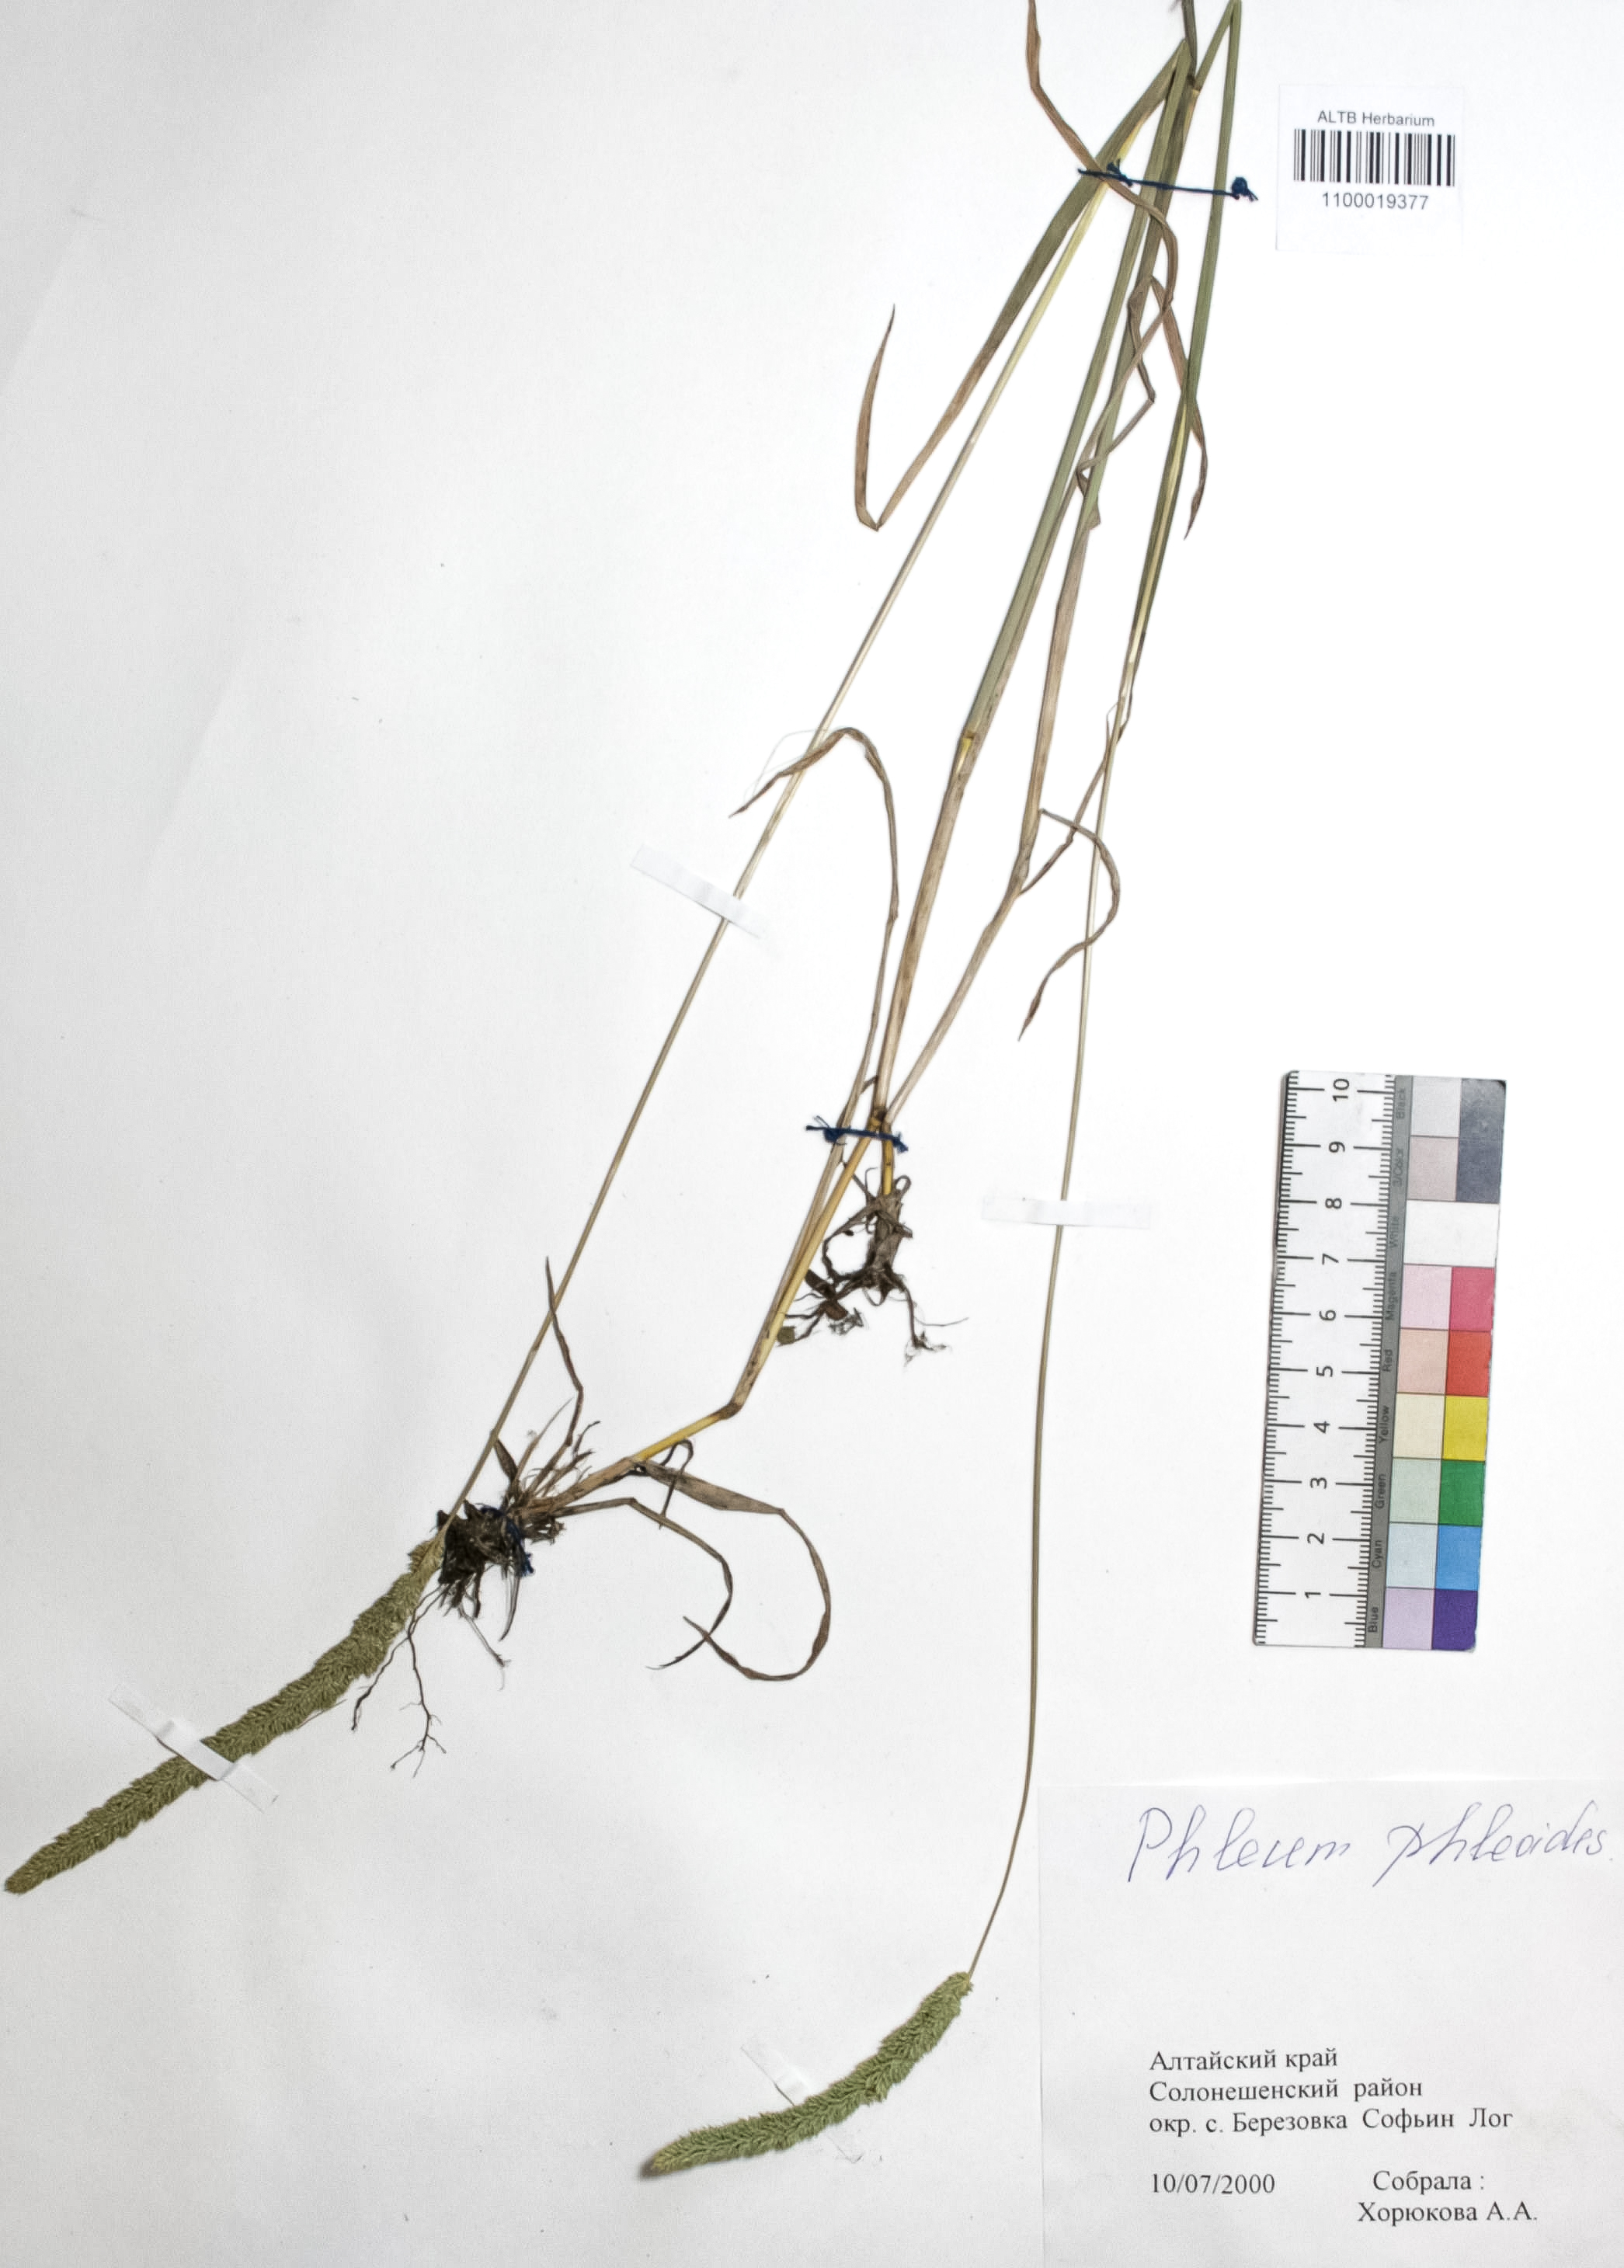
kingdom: Plantae
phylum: Tracheophyta
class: Liliopsida
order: Poales
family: Poaceae
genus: Phleum
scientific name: Phleum phleoides
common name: Purple-stem cat's-tail
